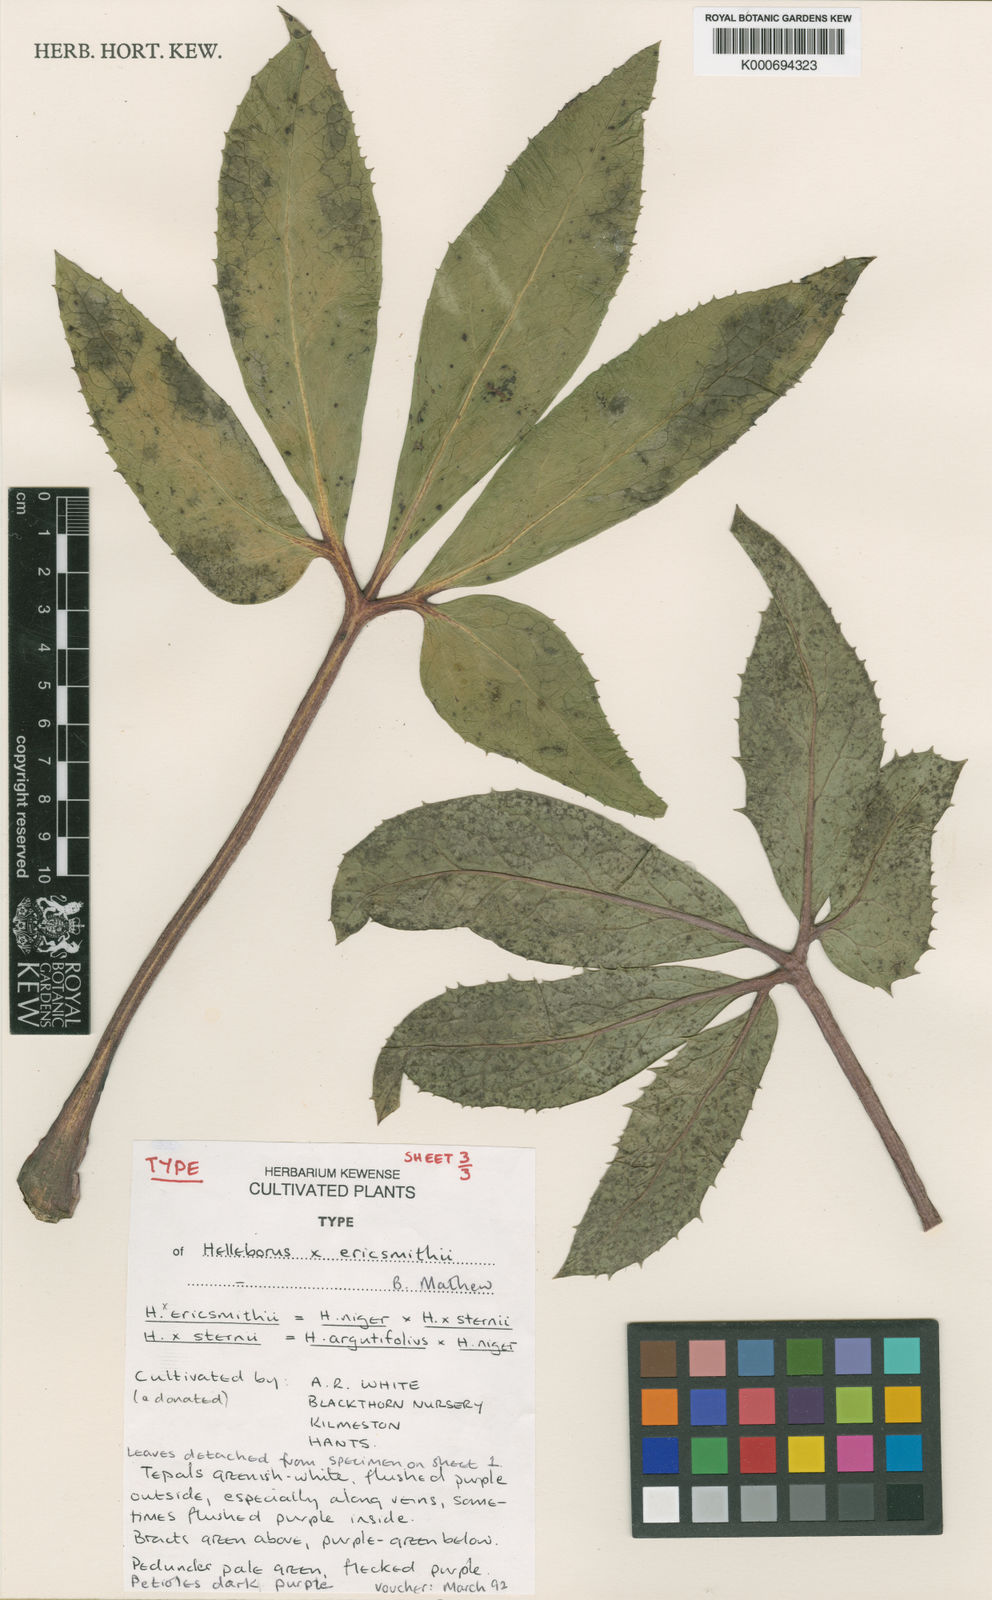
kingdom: Plantae
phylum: Tracheophyta
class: Magnoliopsida
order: Ranunculales
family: Ranunculaceae
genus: Helleborus
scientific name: Helleborus ericsmithii
